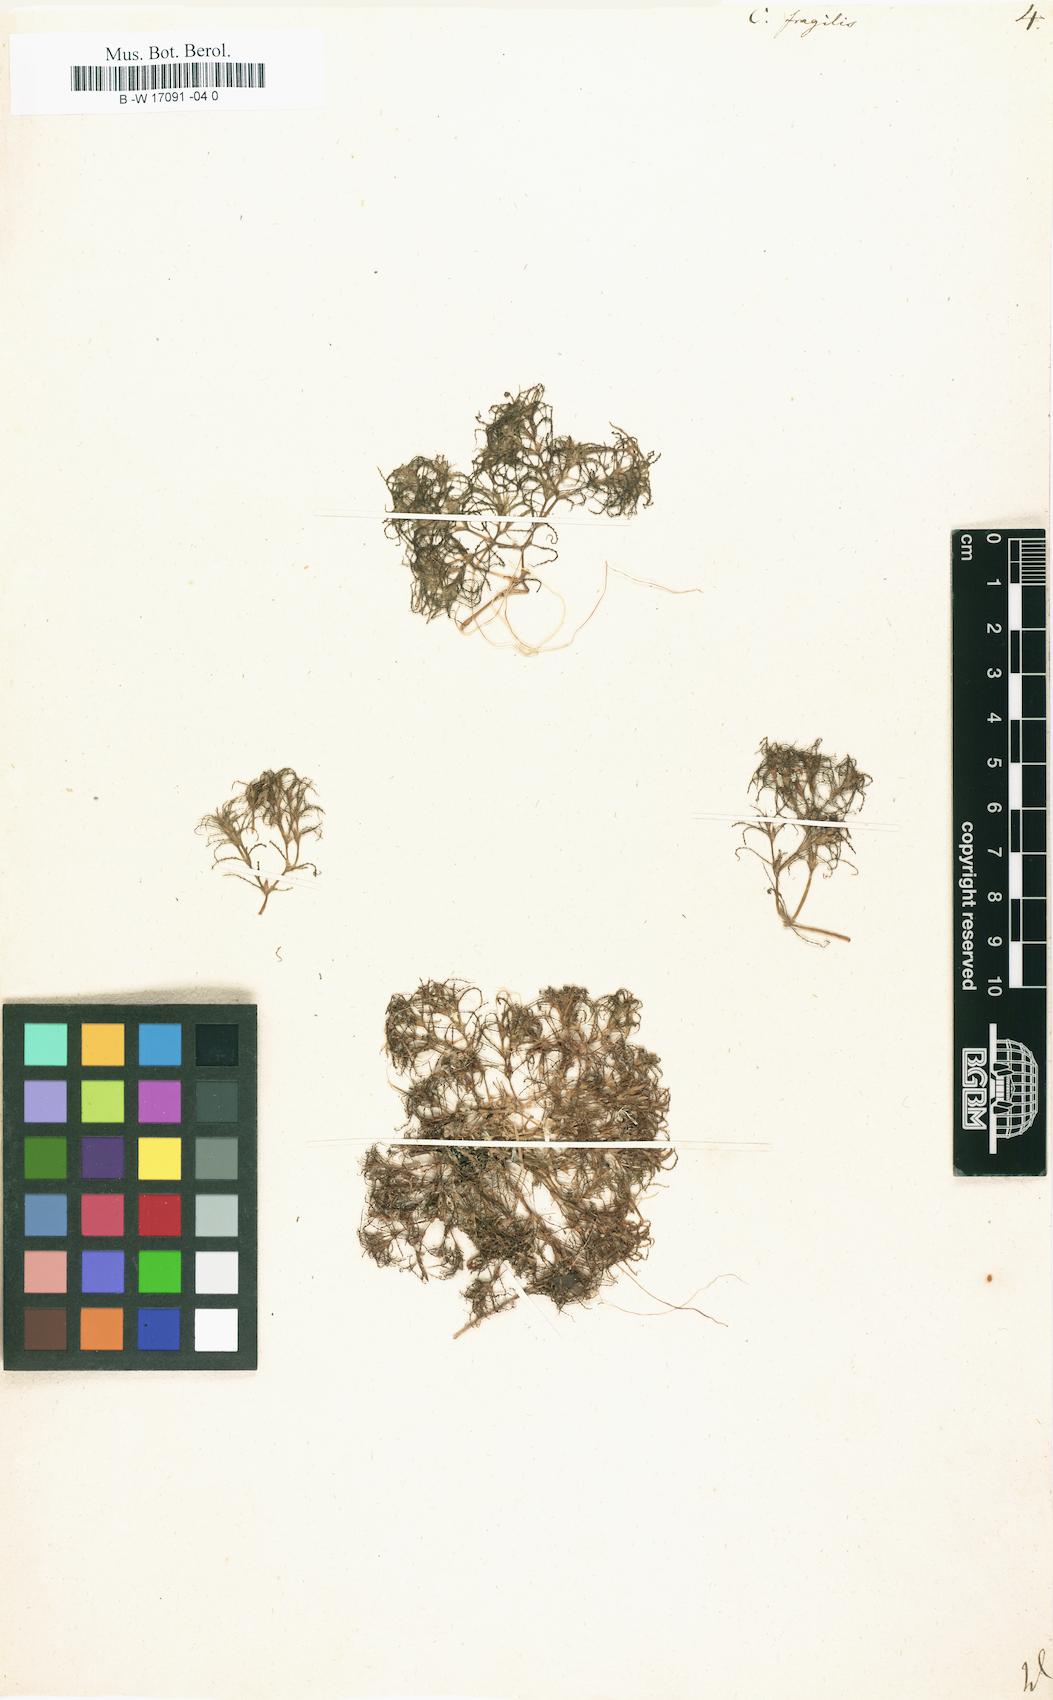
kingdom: Plantae
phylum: Tracheophyta
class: Liliopsida
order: Alismatales
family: Hydrocharitaceae
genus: Najas
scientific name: Najas minor
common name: Brittle naiad
